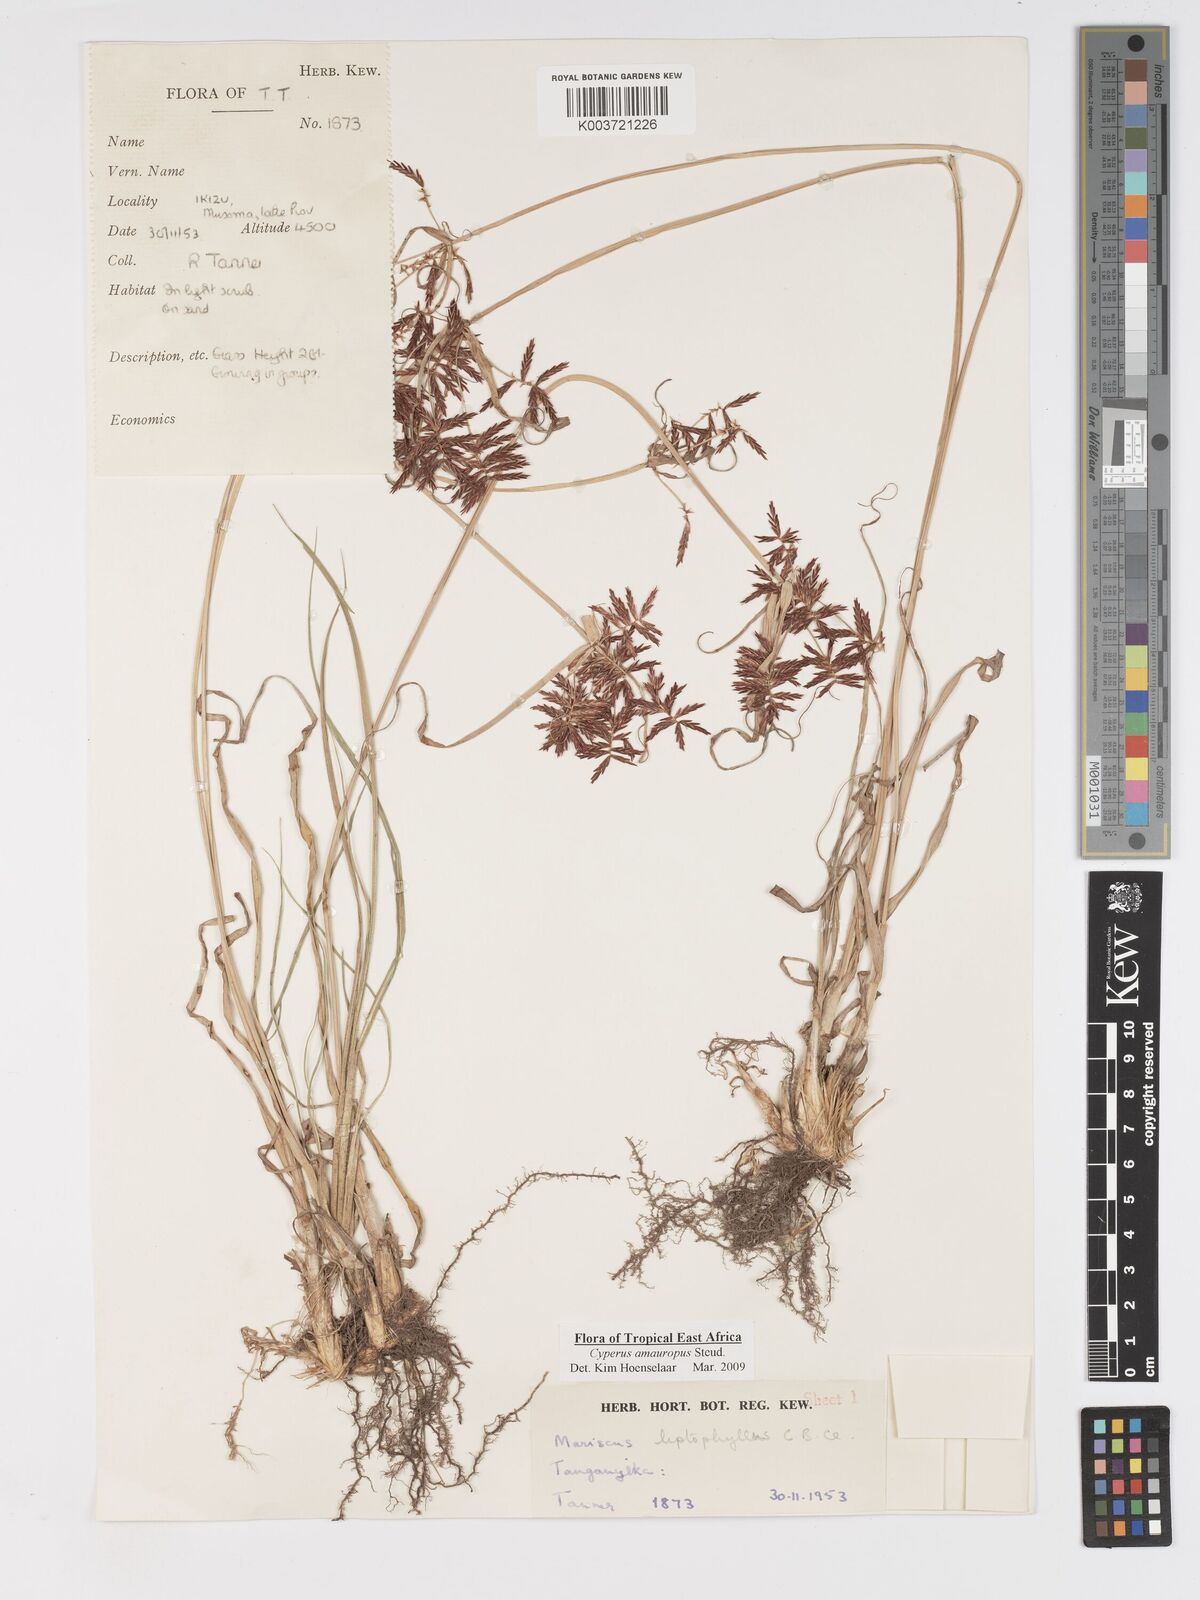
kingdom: Plantae
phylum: Tracheophyta
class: Liliopsida
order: Poales
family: Cyperaceae
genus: Cyperus
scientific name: Cyperus amauropus
